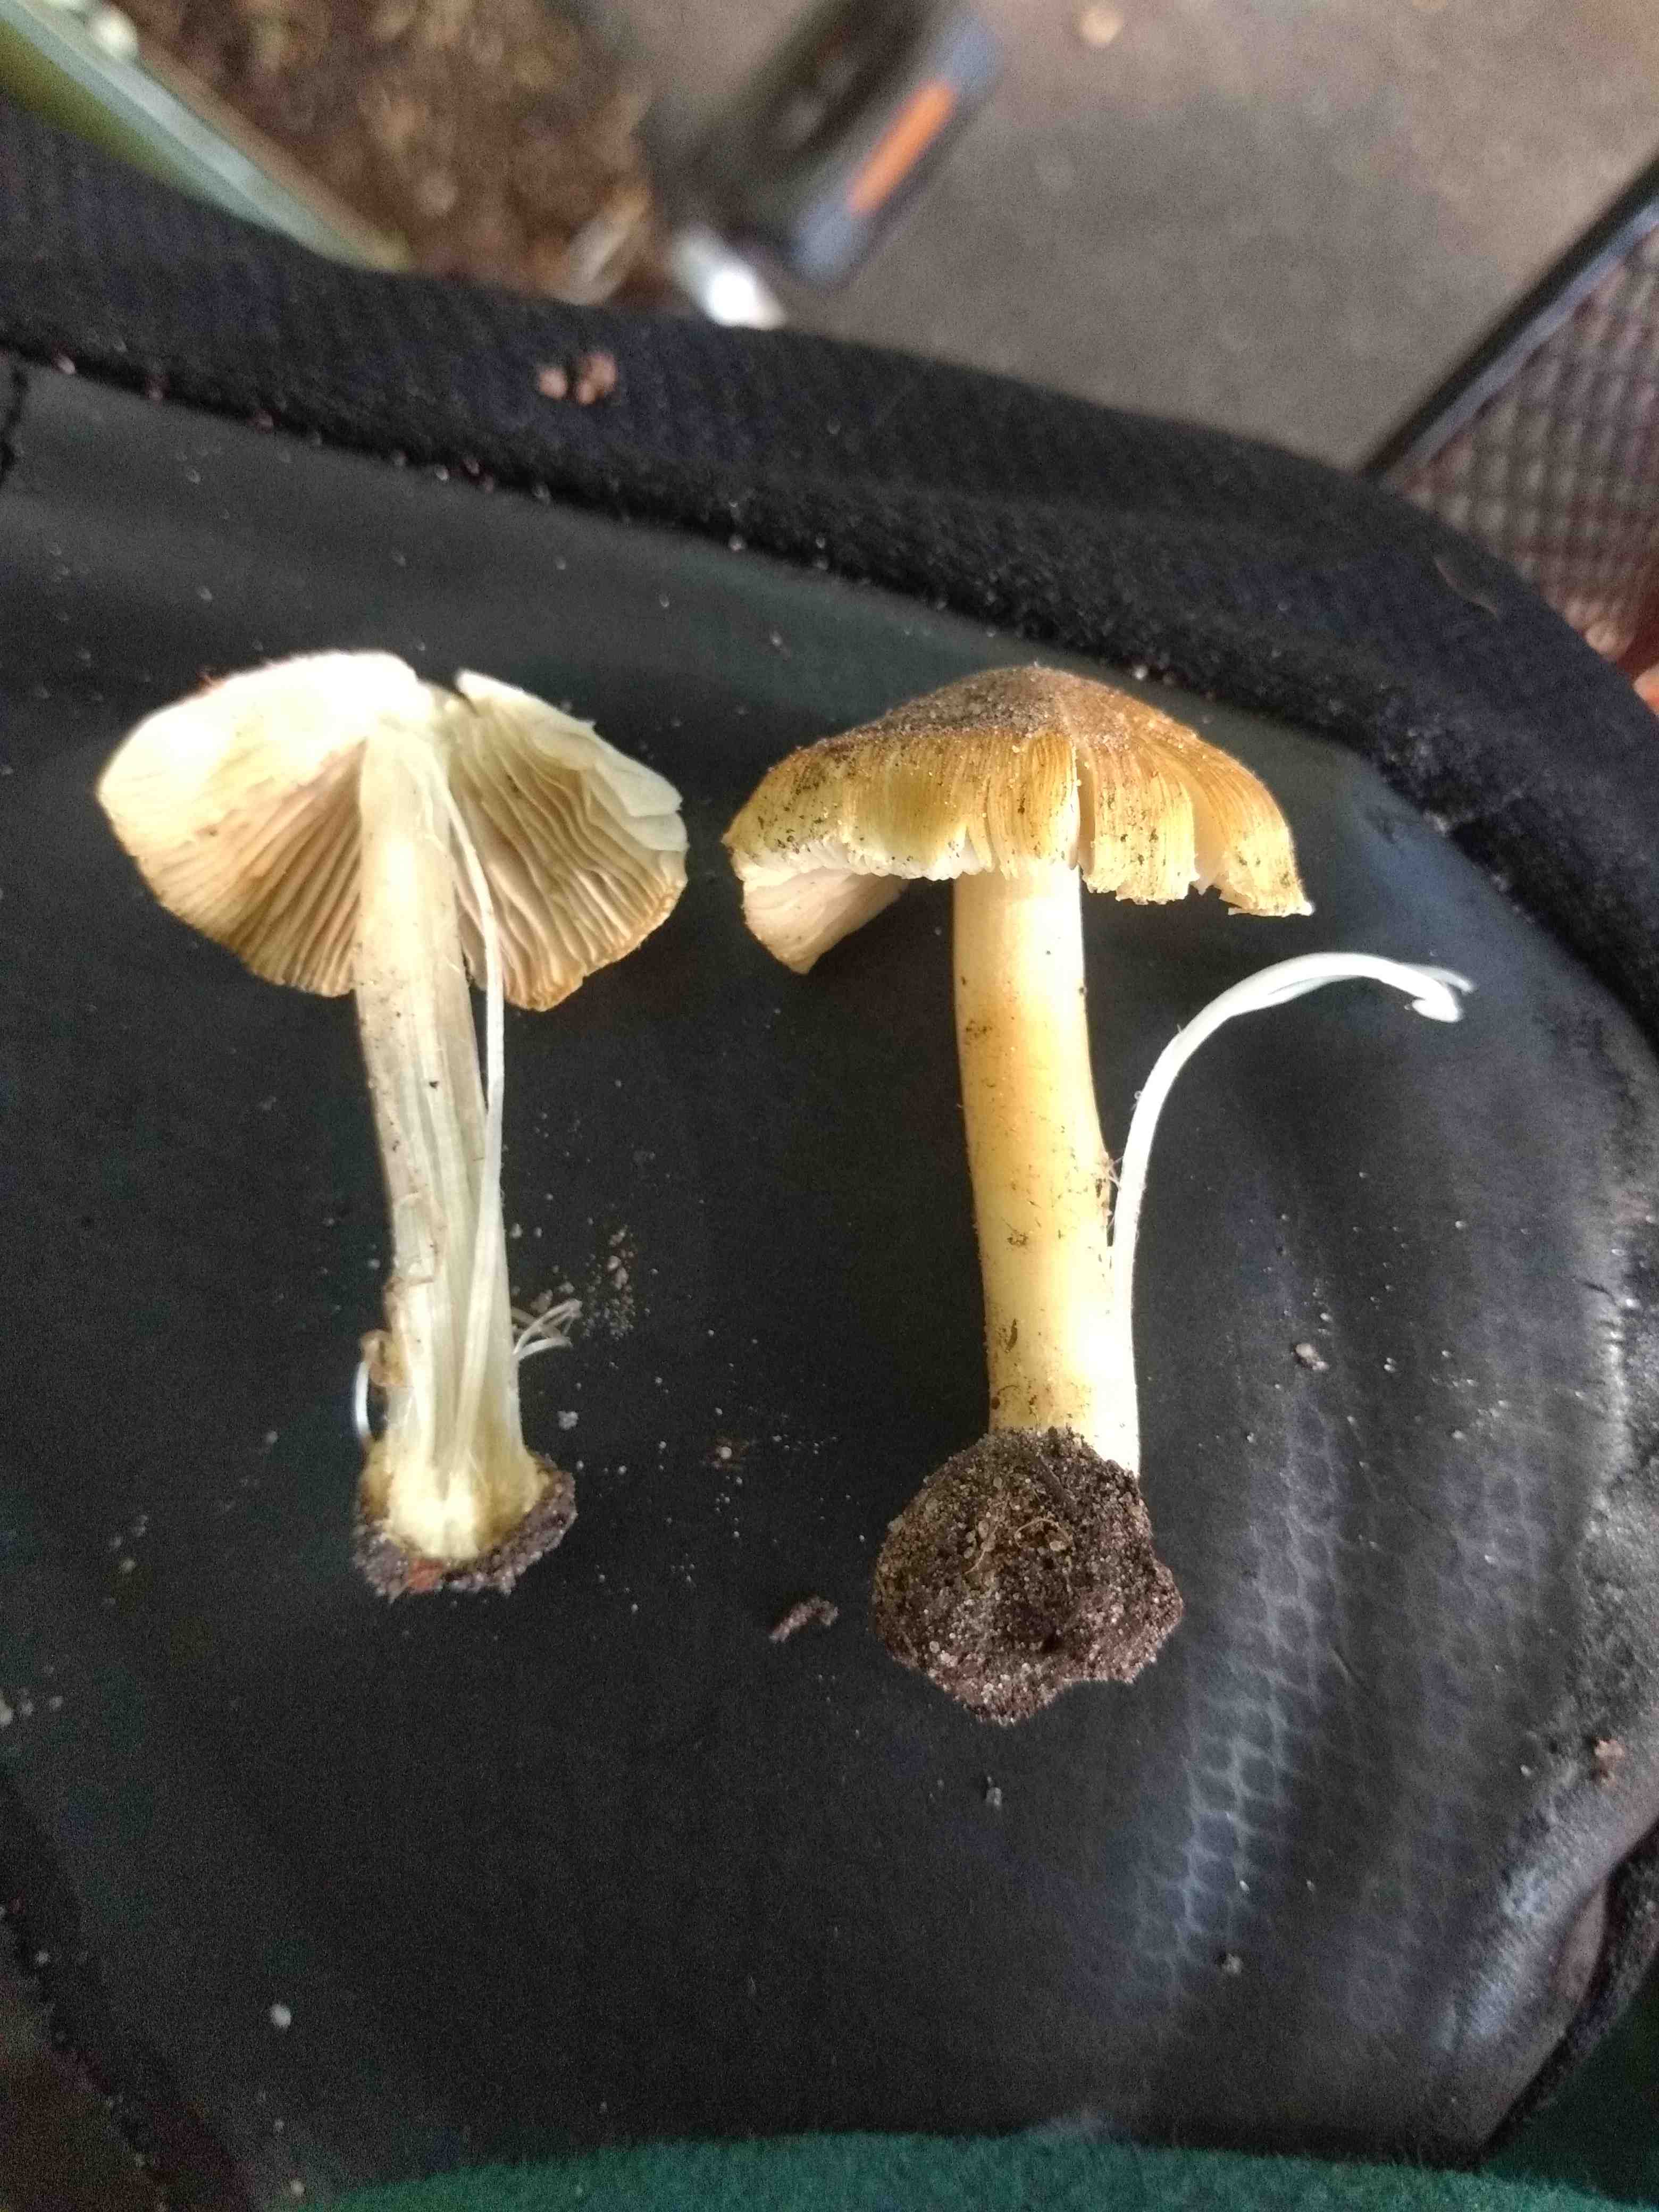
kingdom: Fungi
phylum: Basidiomycota
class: Agaricomycetes
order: Agaricales
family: Inocybaceae
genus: Inocybe
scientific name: Inocybe
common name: trævlhat
